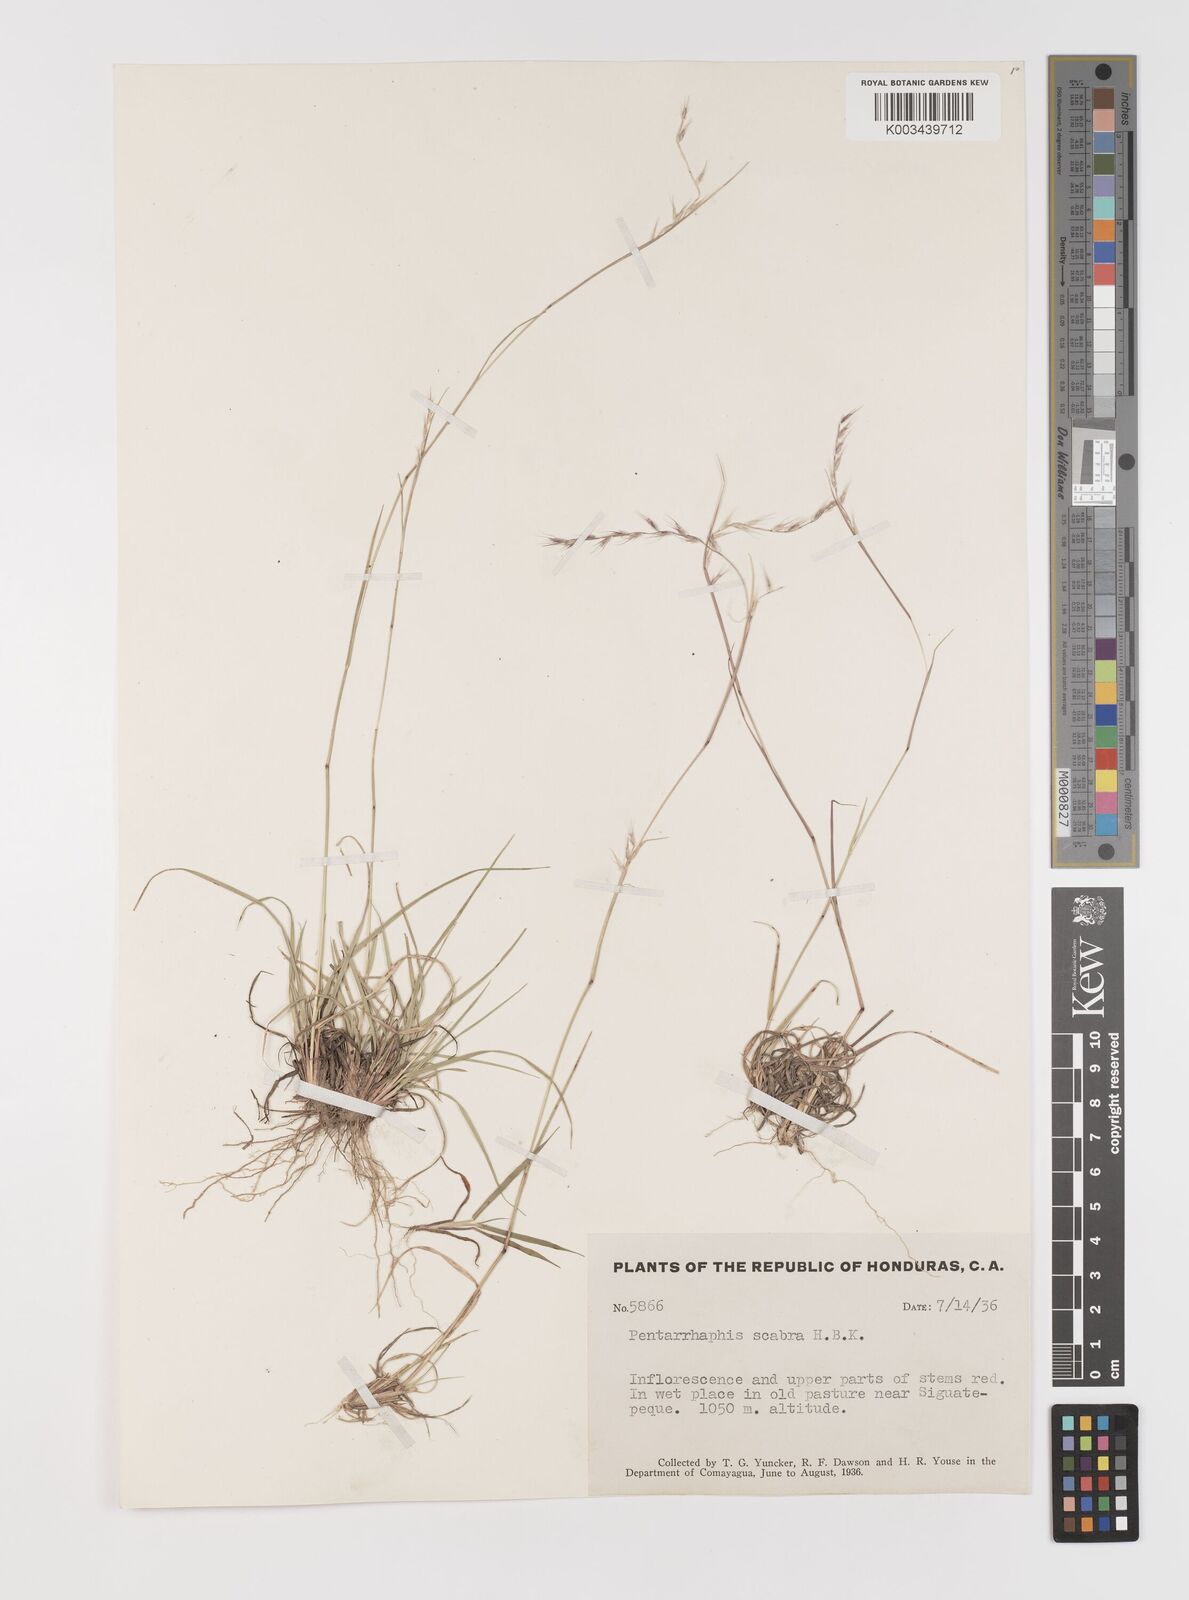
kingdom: Plantae
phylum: Tracheophyta
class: Liliopsida
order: Poales
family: Poaceae
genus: Bouteloua
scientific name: Bouteloua scabra
